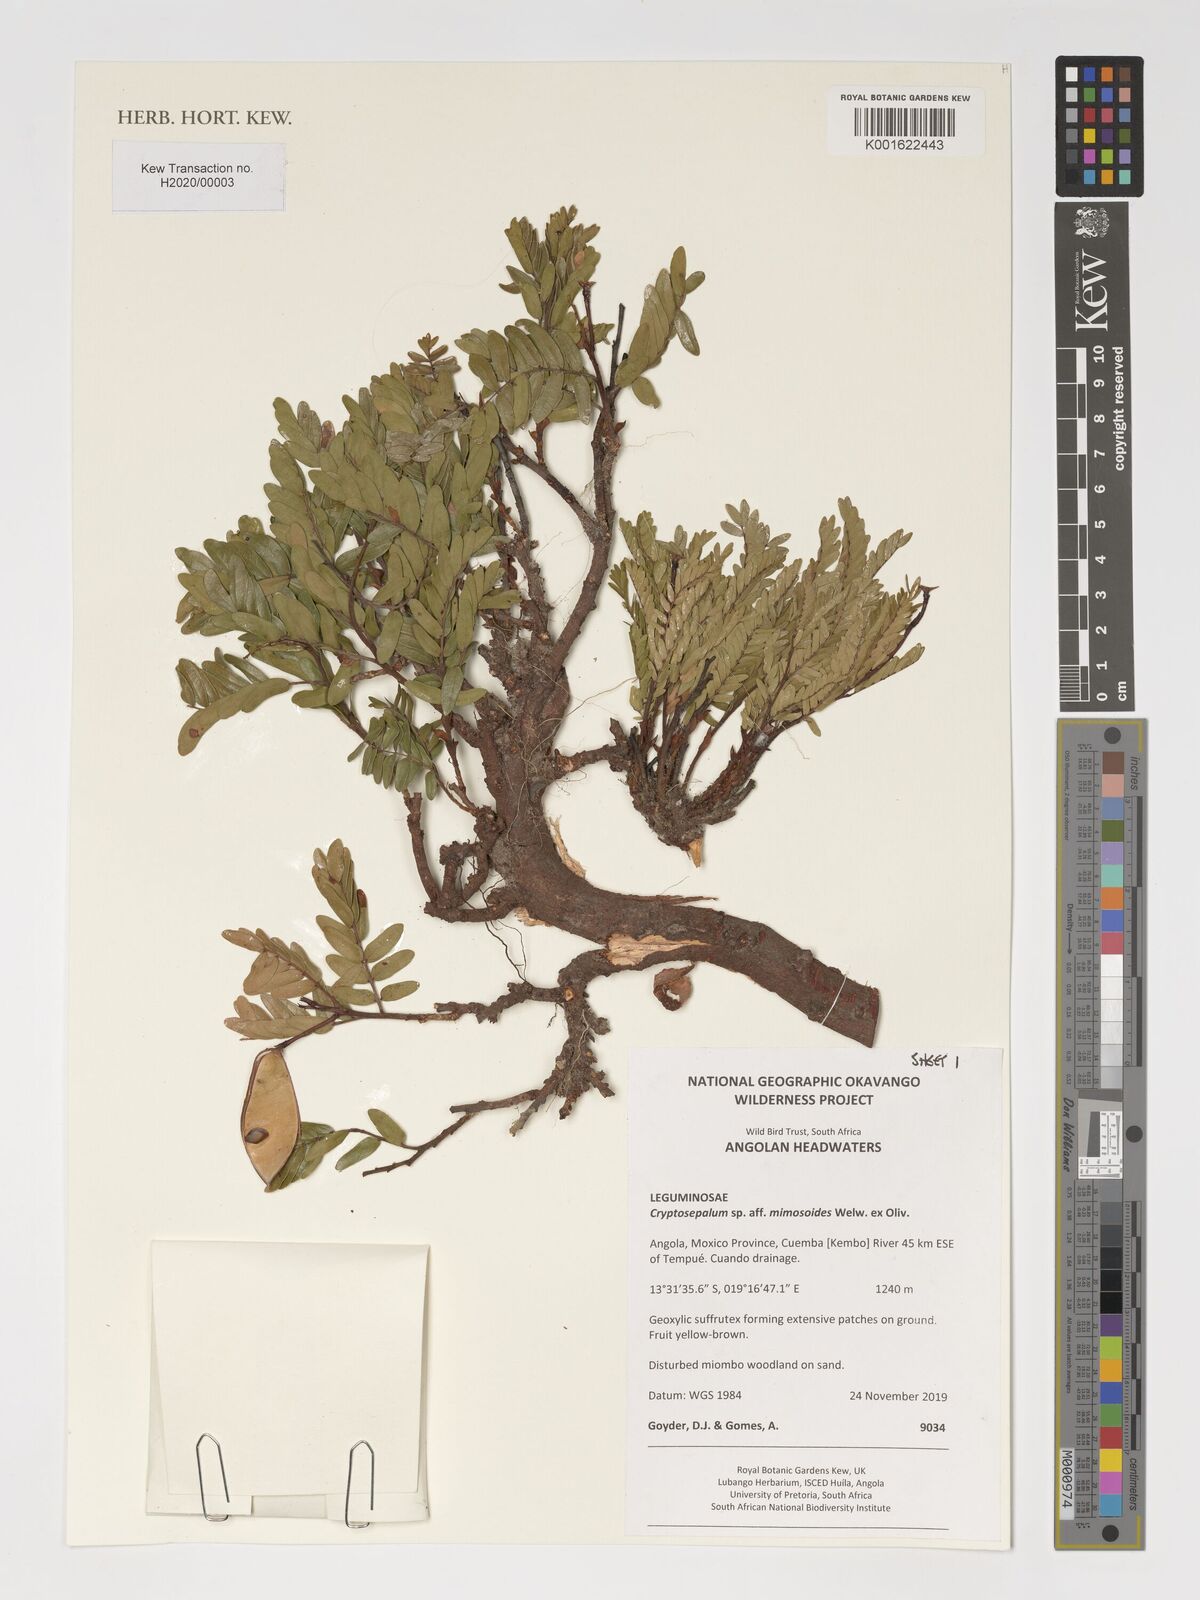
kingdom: Plantae
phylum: Tracheophyta
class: Magnoliopsida
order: Fabales
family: Fabaceae
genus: Cryptosepalum
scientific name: Cryptosepalum mimosoides
